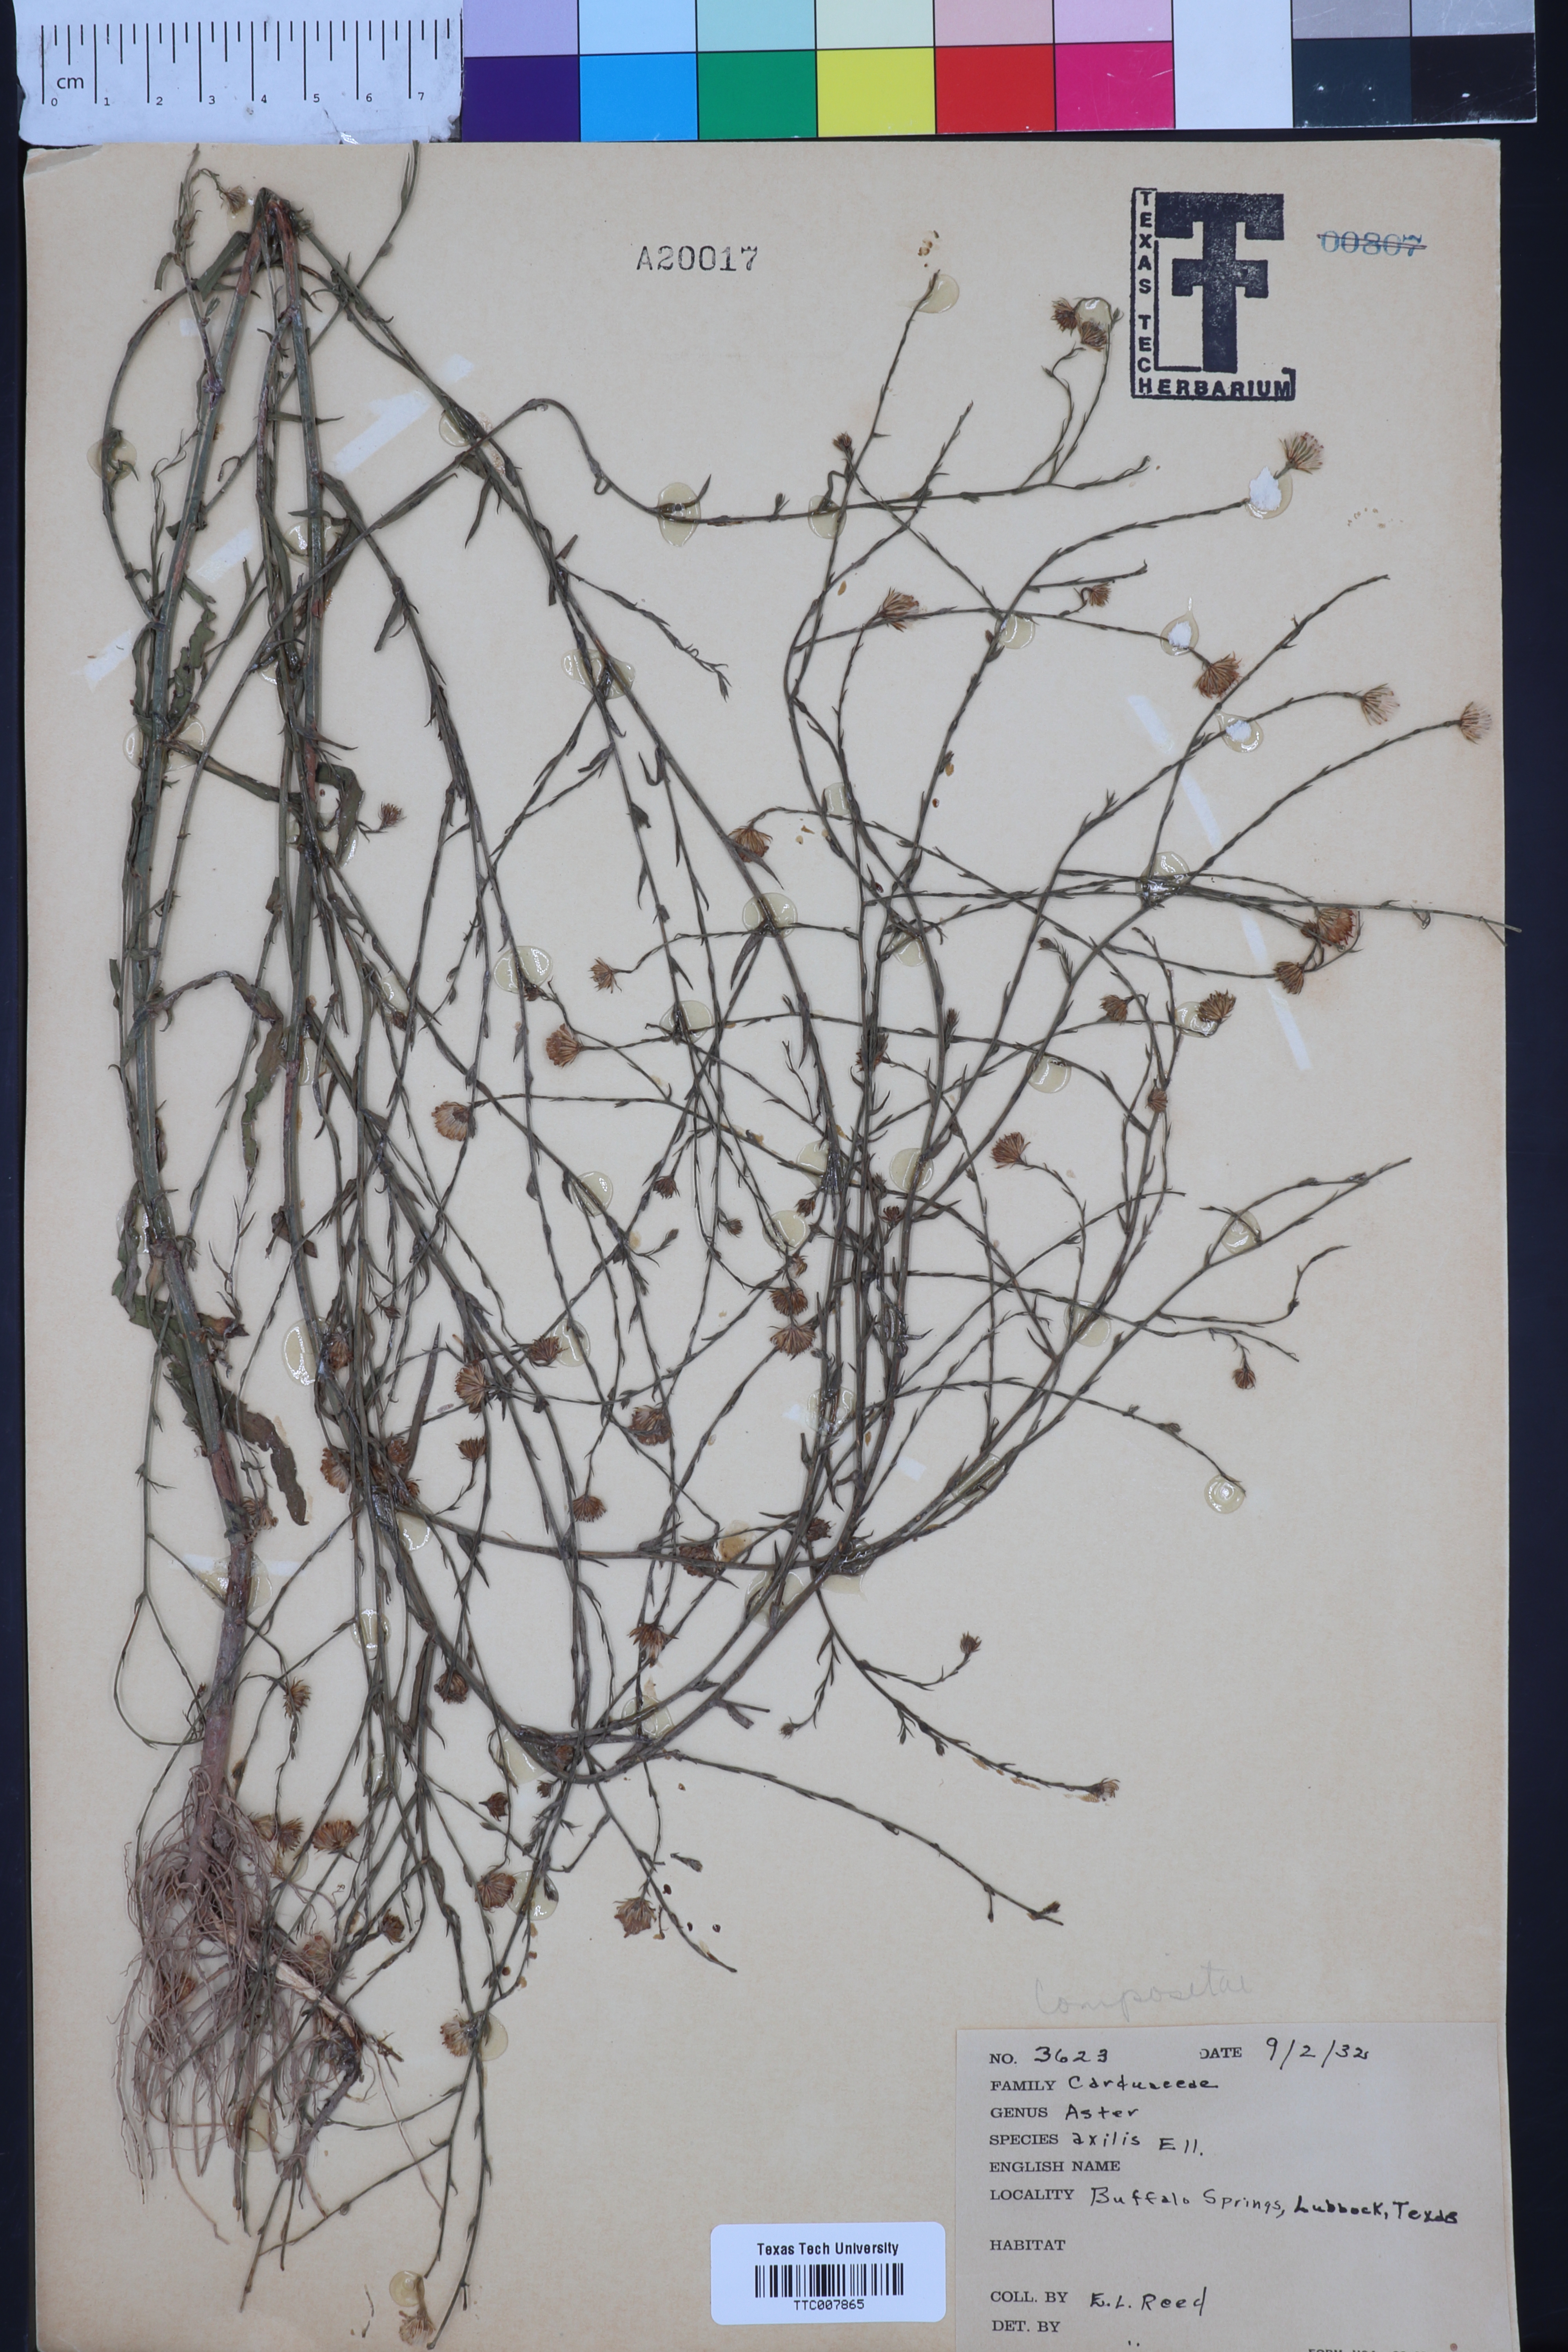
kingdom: Plantae
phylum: Tracheophyta
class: Magnoliopsida
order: Asterales
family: Asteraceae
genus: Olearia
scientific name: Olearia axillaris
